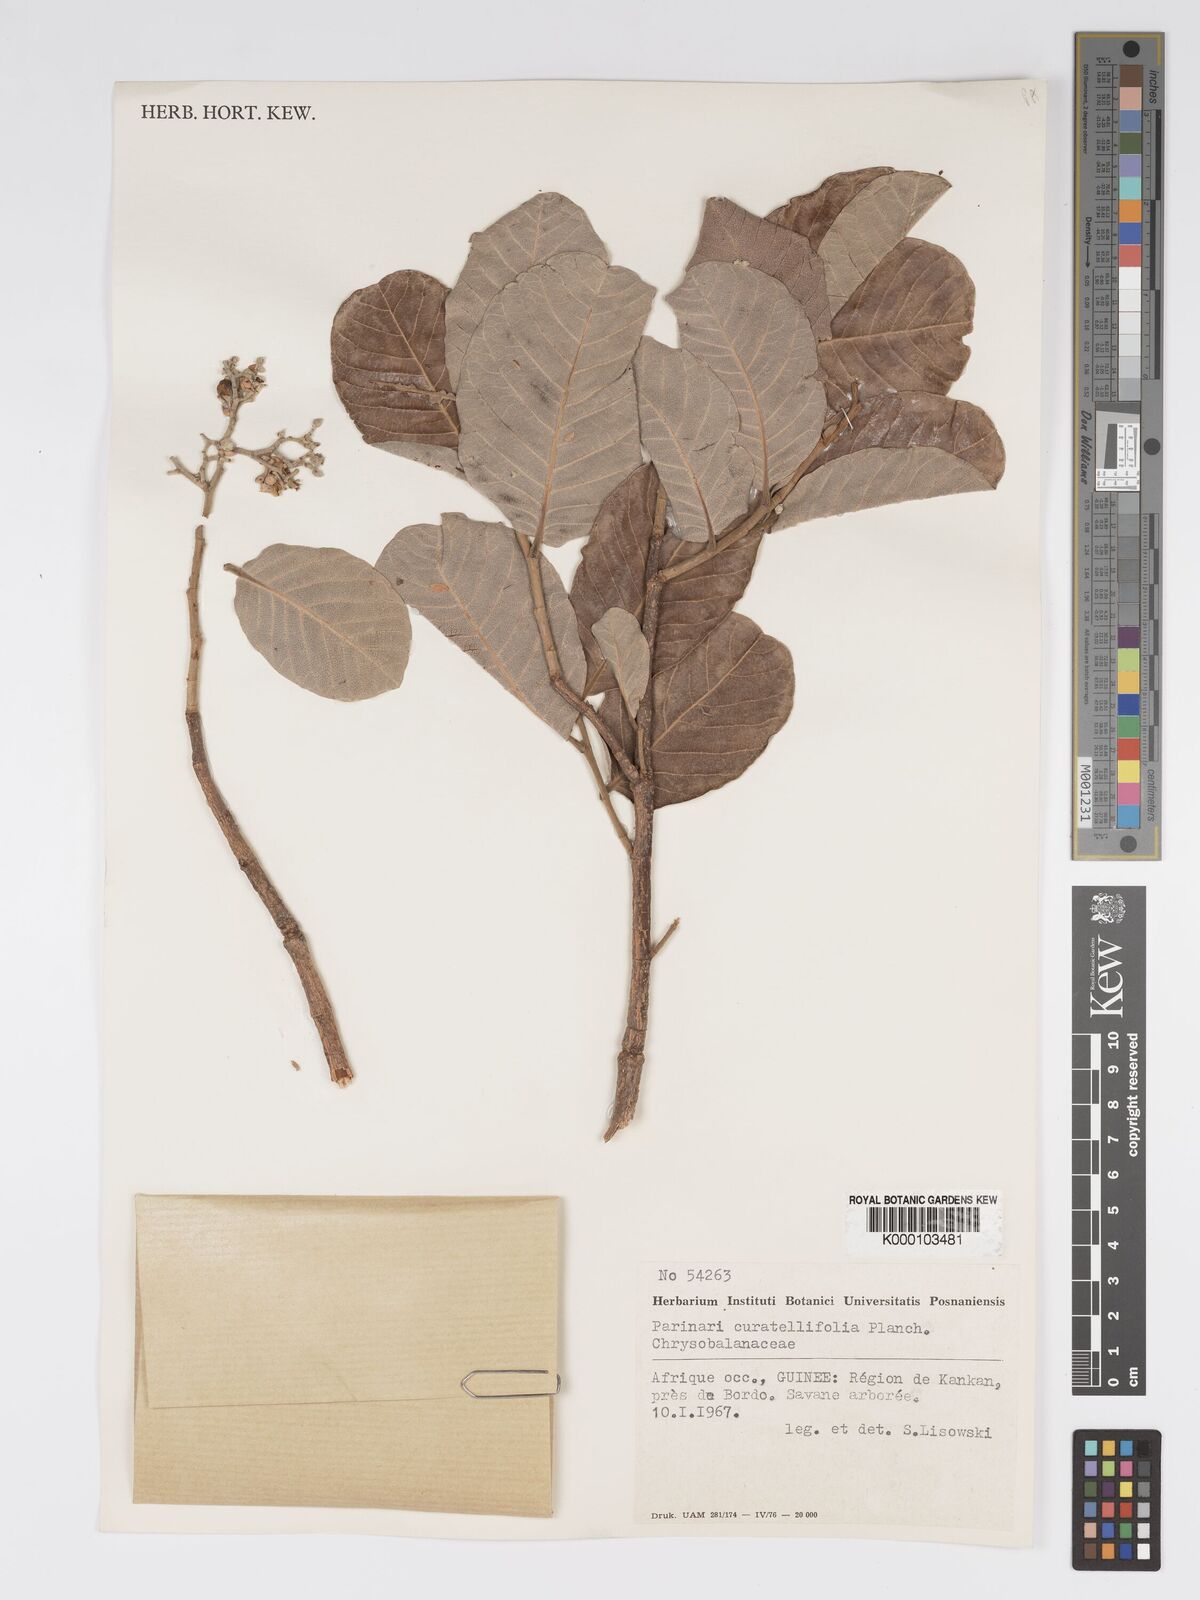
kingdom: Plantae
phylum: Tracheophyta
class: Magnoliopsida
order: Malpighiales
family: Chrysobalanaceae
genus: Parinari
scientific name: Parinari curatellifolia
